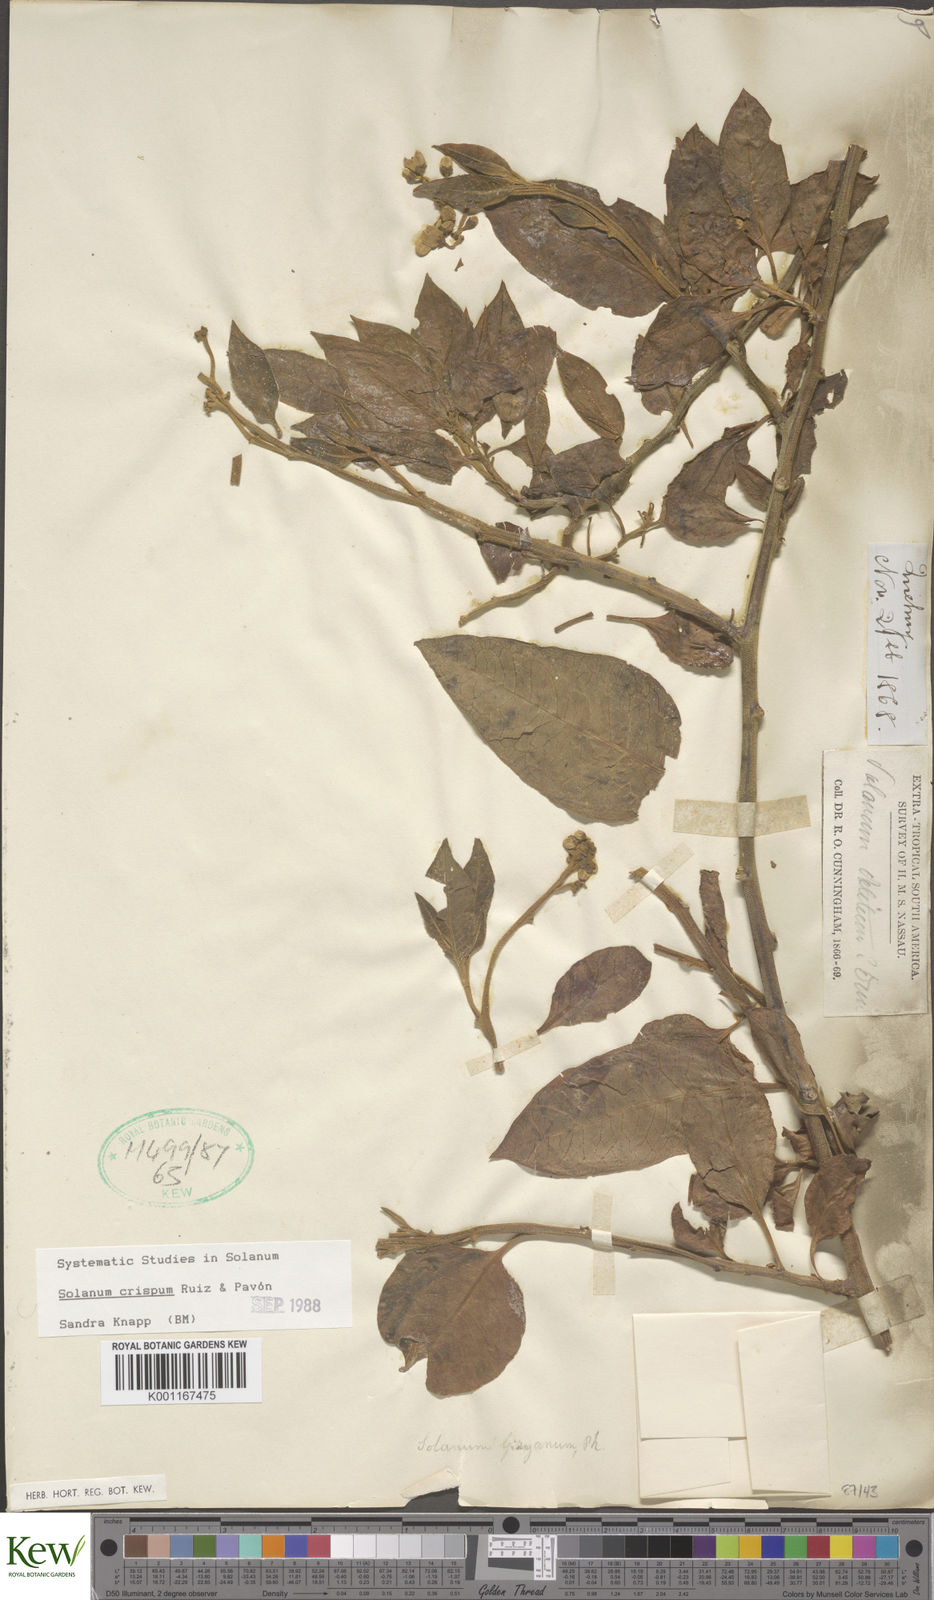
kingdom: Plantae
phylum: Tracheophyta
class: Magnoliopsida
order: Solanales
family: Solanaceae
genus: Solanum
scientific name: Solanum crispum
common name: Chilean nightshade
